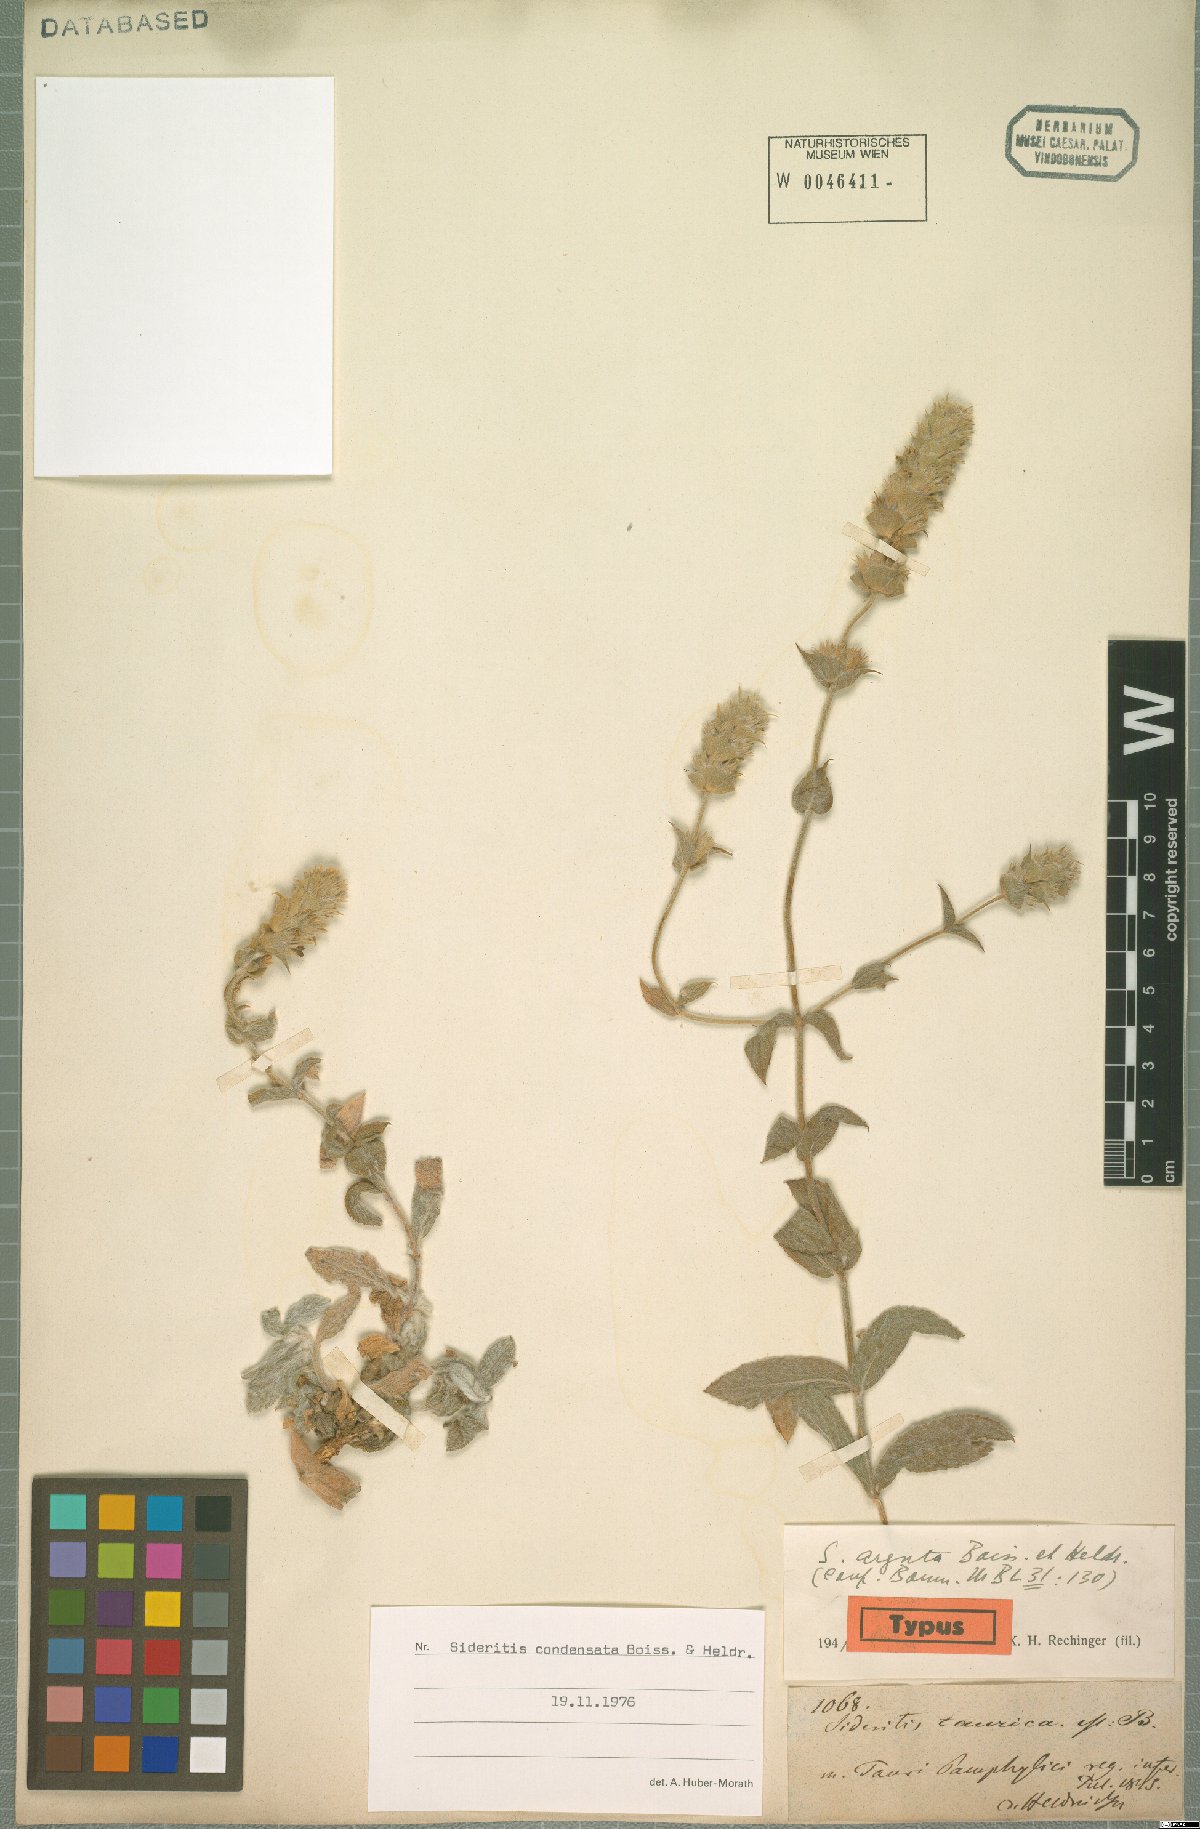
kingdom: Plantae
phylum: Tracheophyta
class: Magnoliopsida
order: Lamiales
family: Lamiaceae
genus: Sideritis
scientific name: Sideritis condensata
